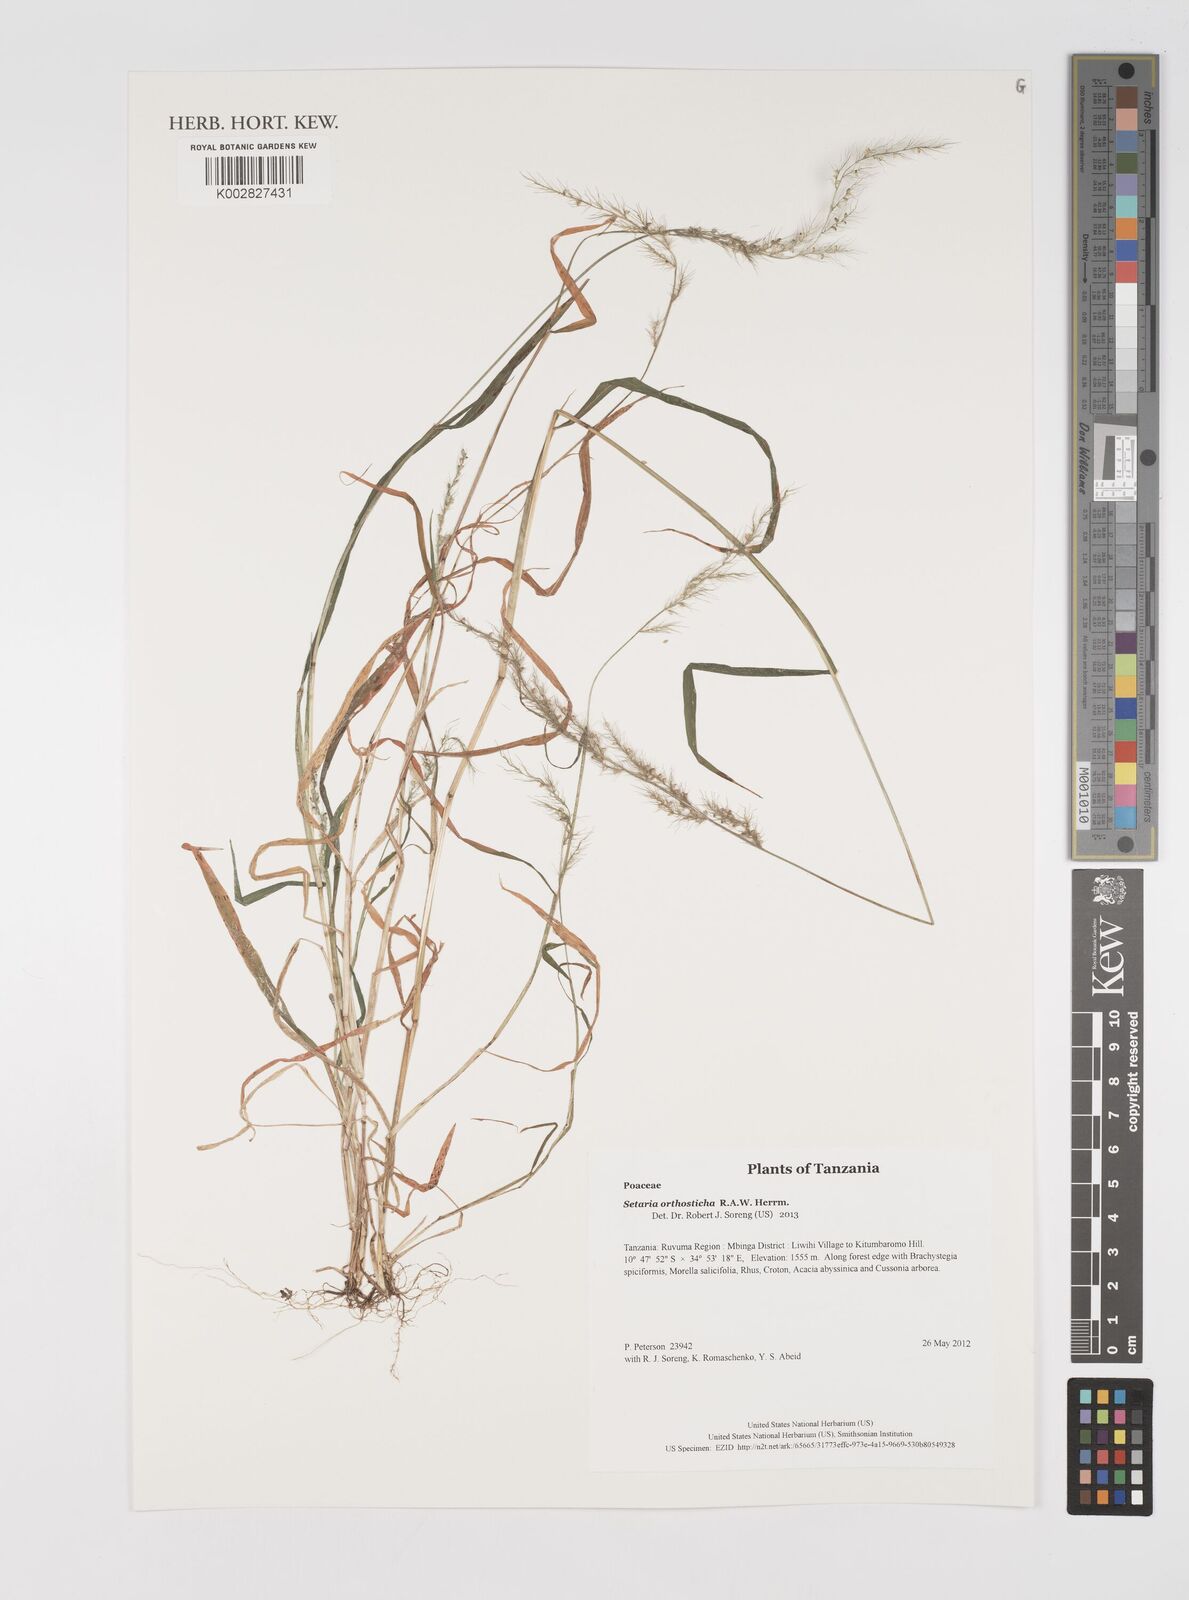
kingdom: Plantae
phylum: Tracheophyta
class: Liliopsida
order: Poales
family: Poaceae
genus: Setaria
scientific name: Setaria orthosticha
